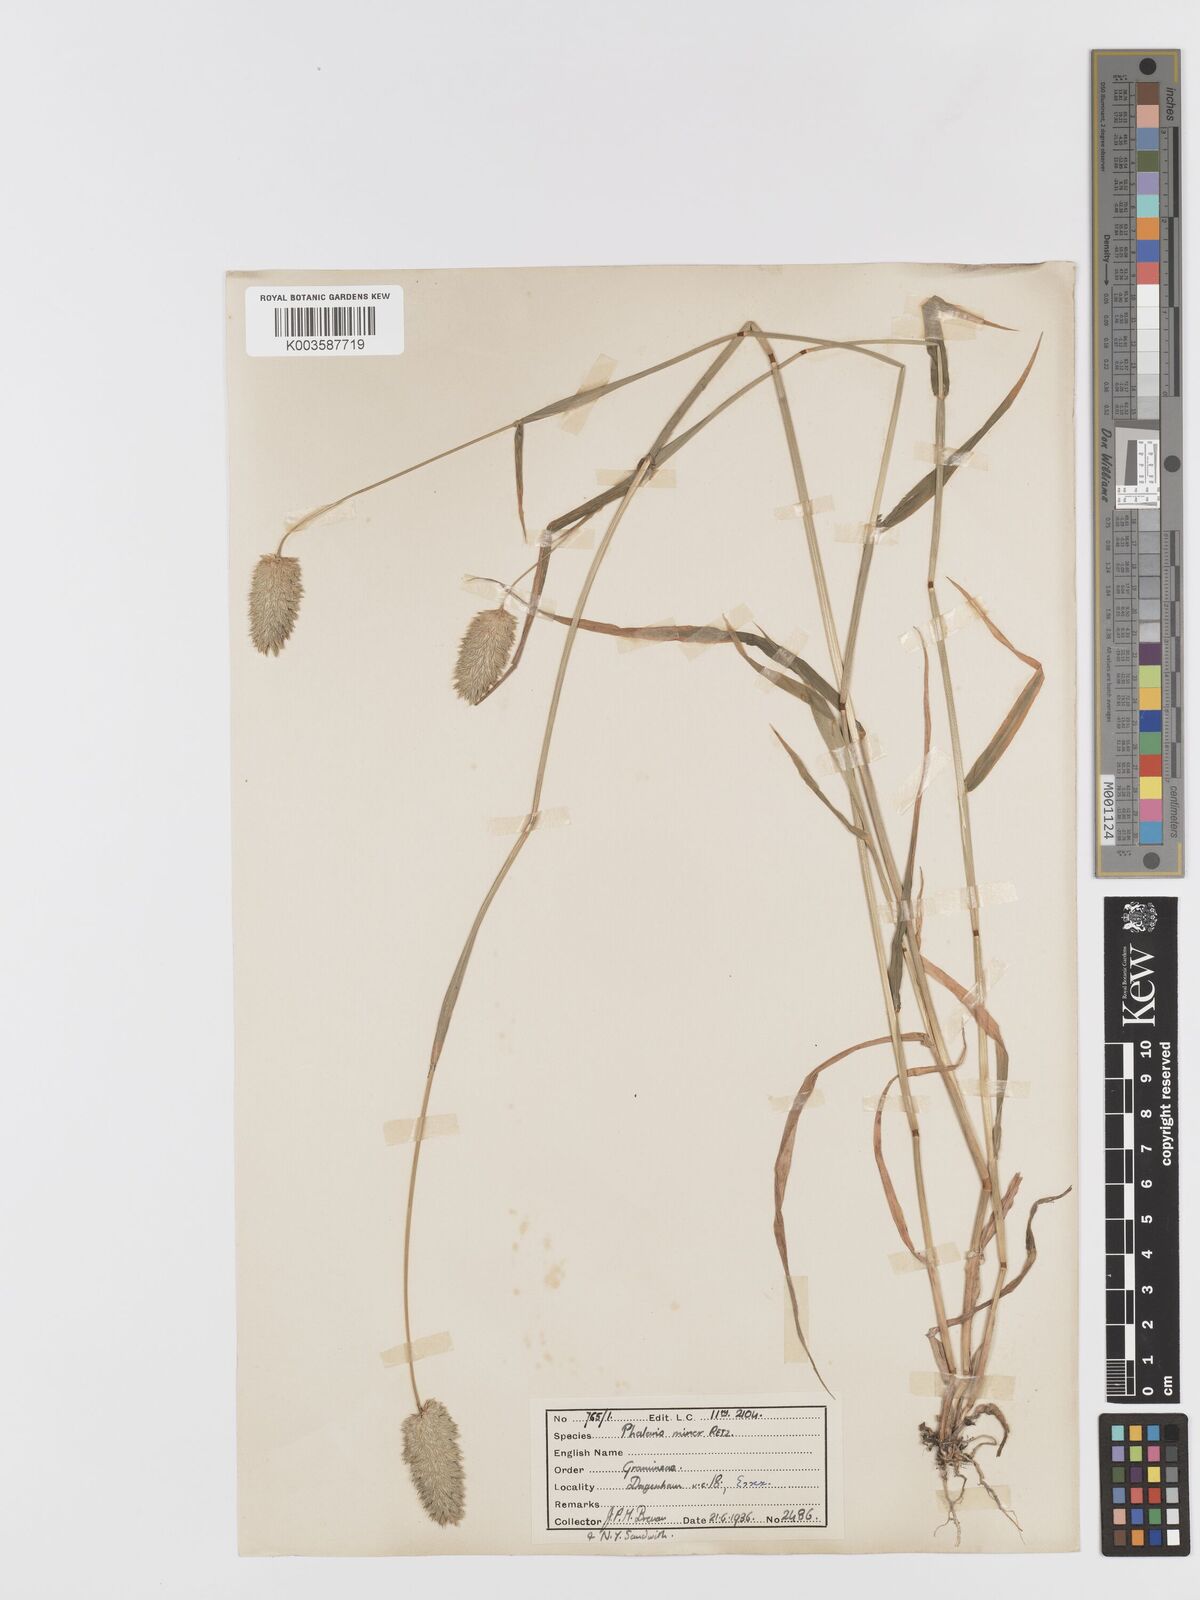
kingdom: Plantae
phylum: Tracheophyta
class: Liliopsida
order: Poales
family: Poaceae
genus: Phalaris
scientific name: Phalaris minor
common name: Littleseed canarygrass
